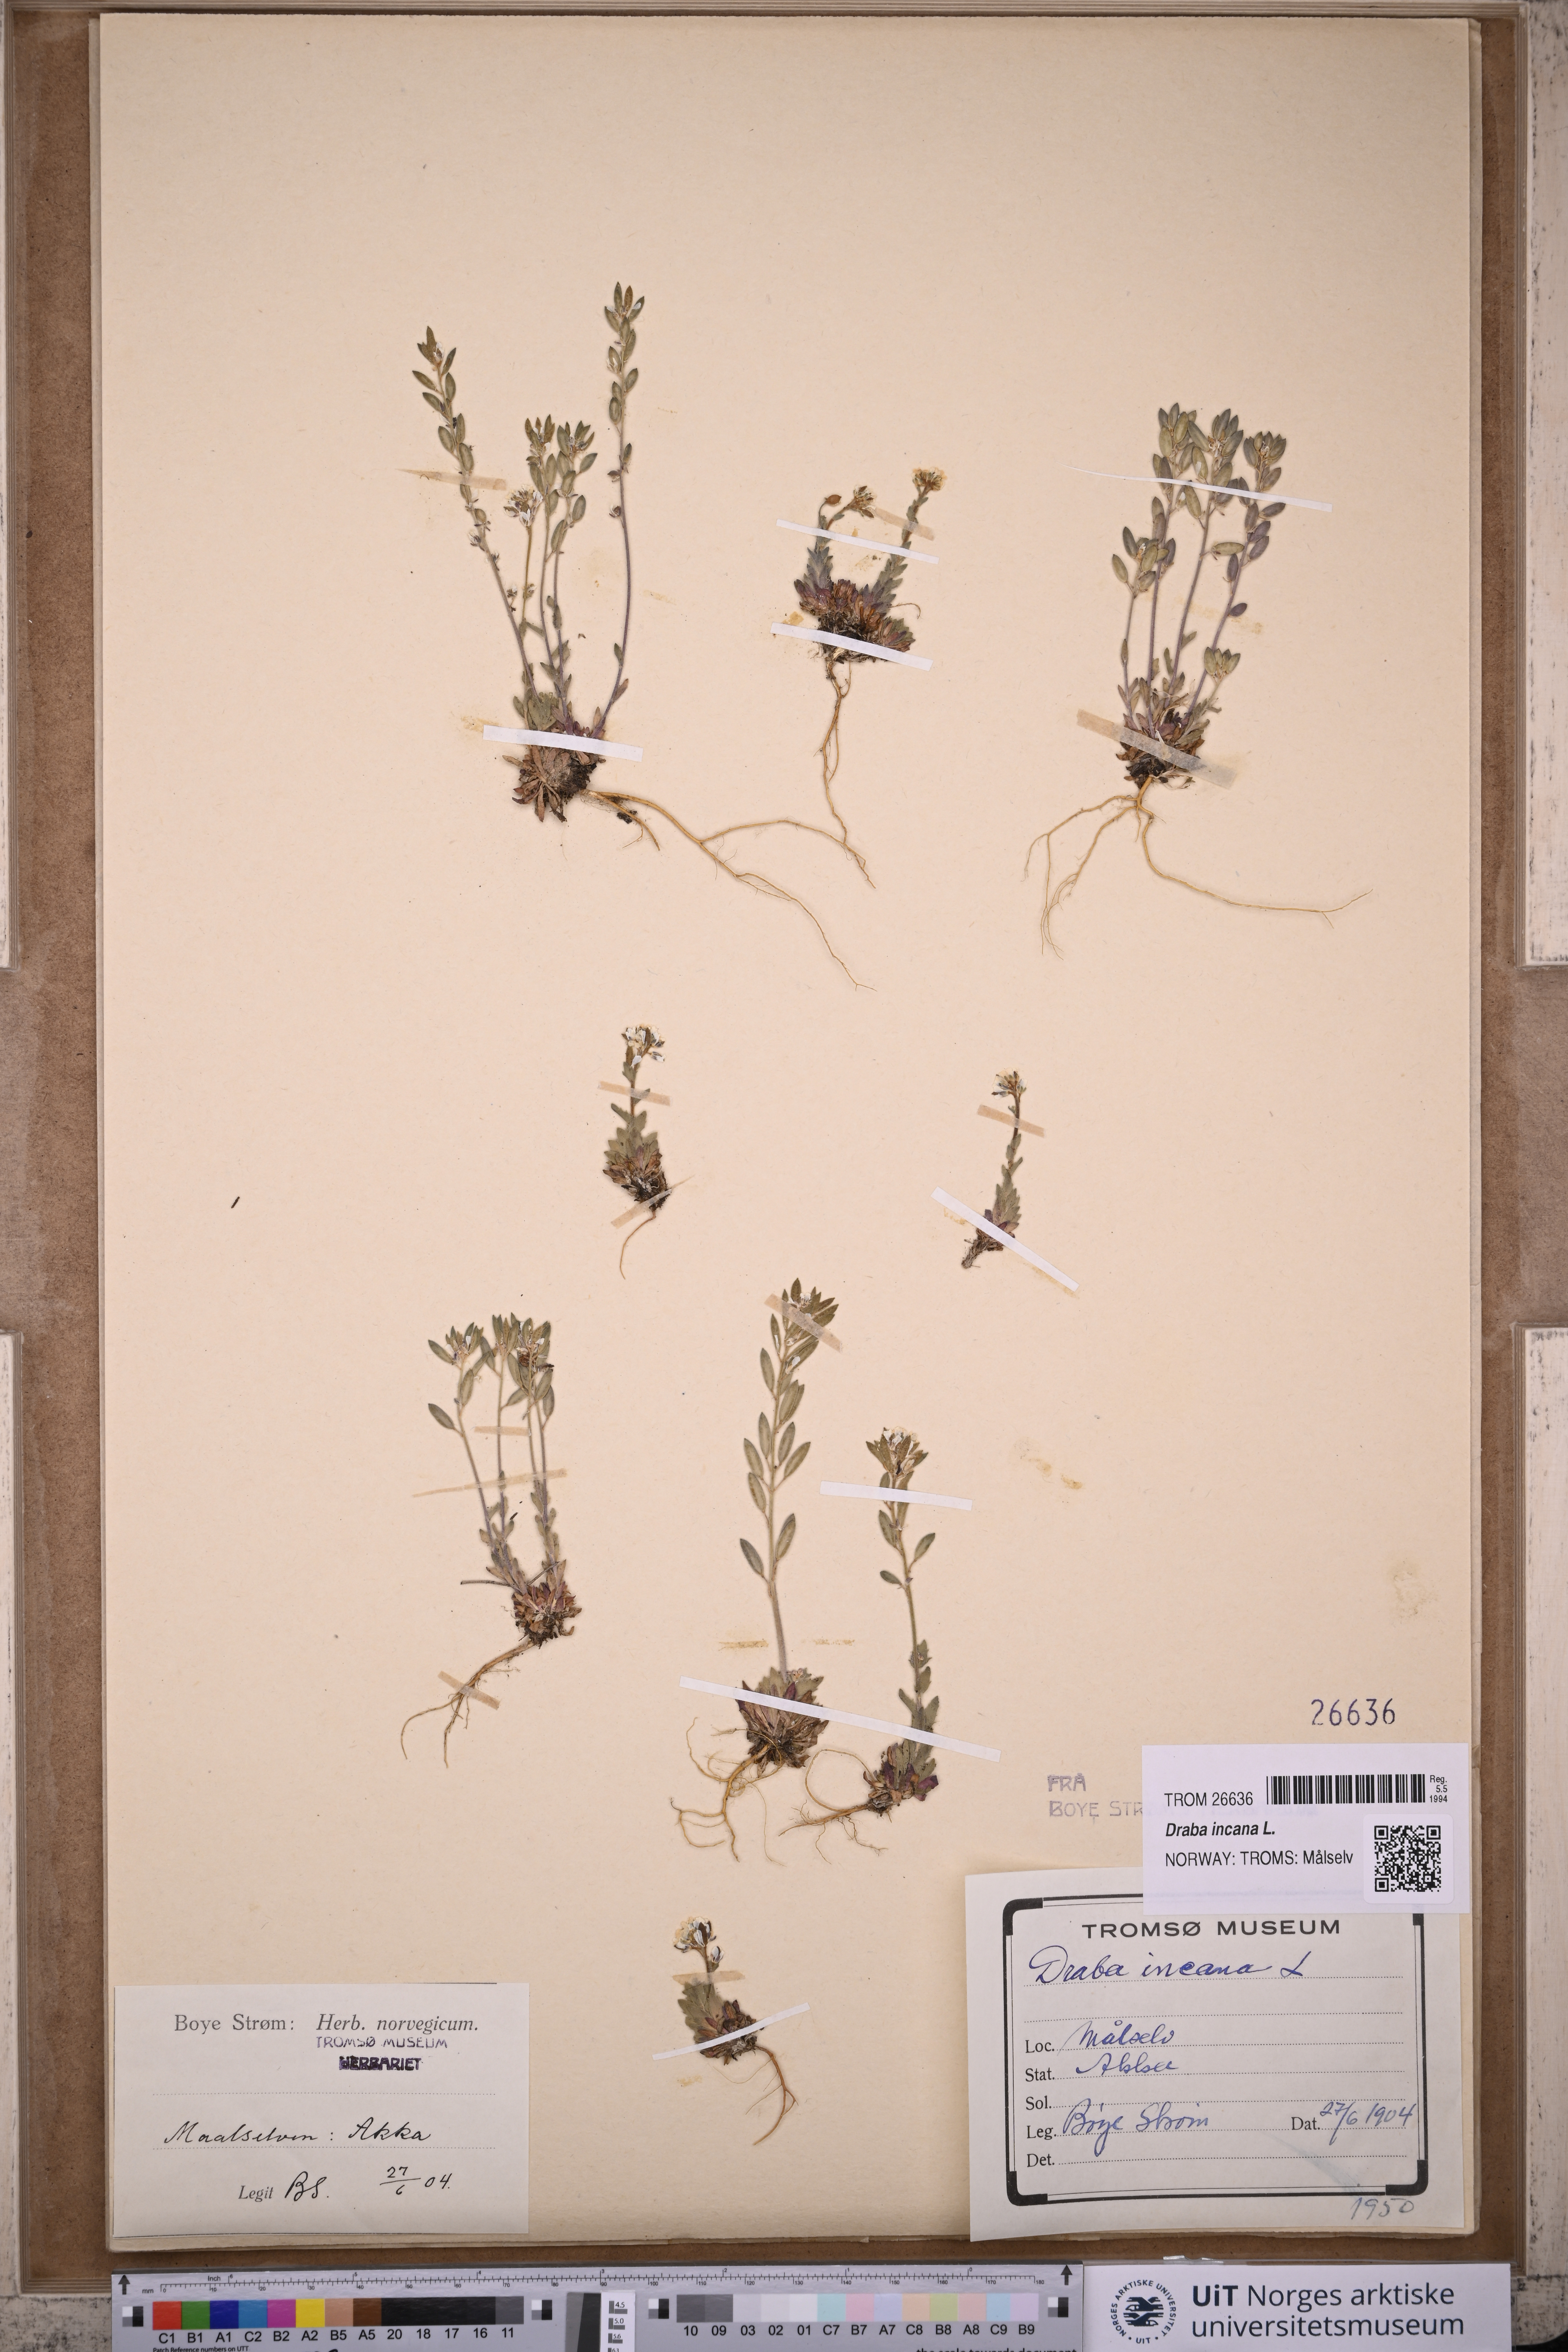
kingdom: Plantae
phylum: Tracheophyta
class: Magnoliopsida
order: Brassicales
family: Brassicaceae
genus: Draba
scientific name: Draba incana
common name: Hoary whitlow-grass
